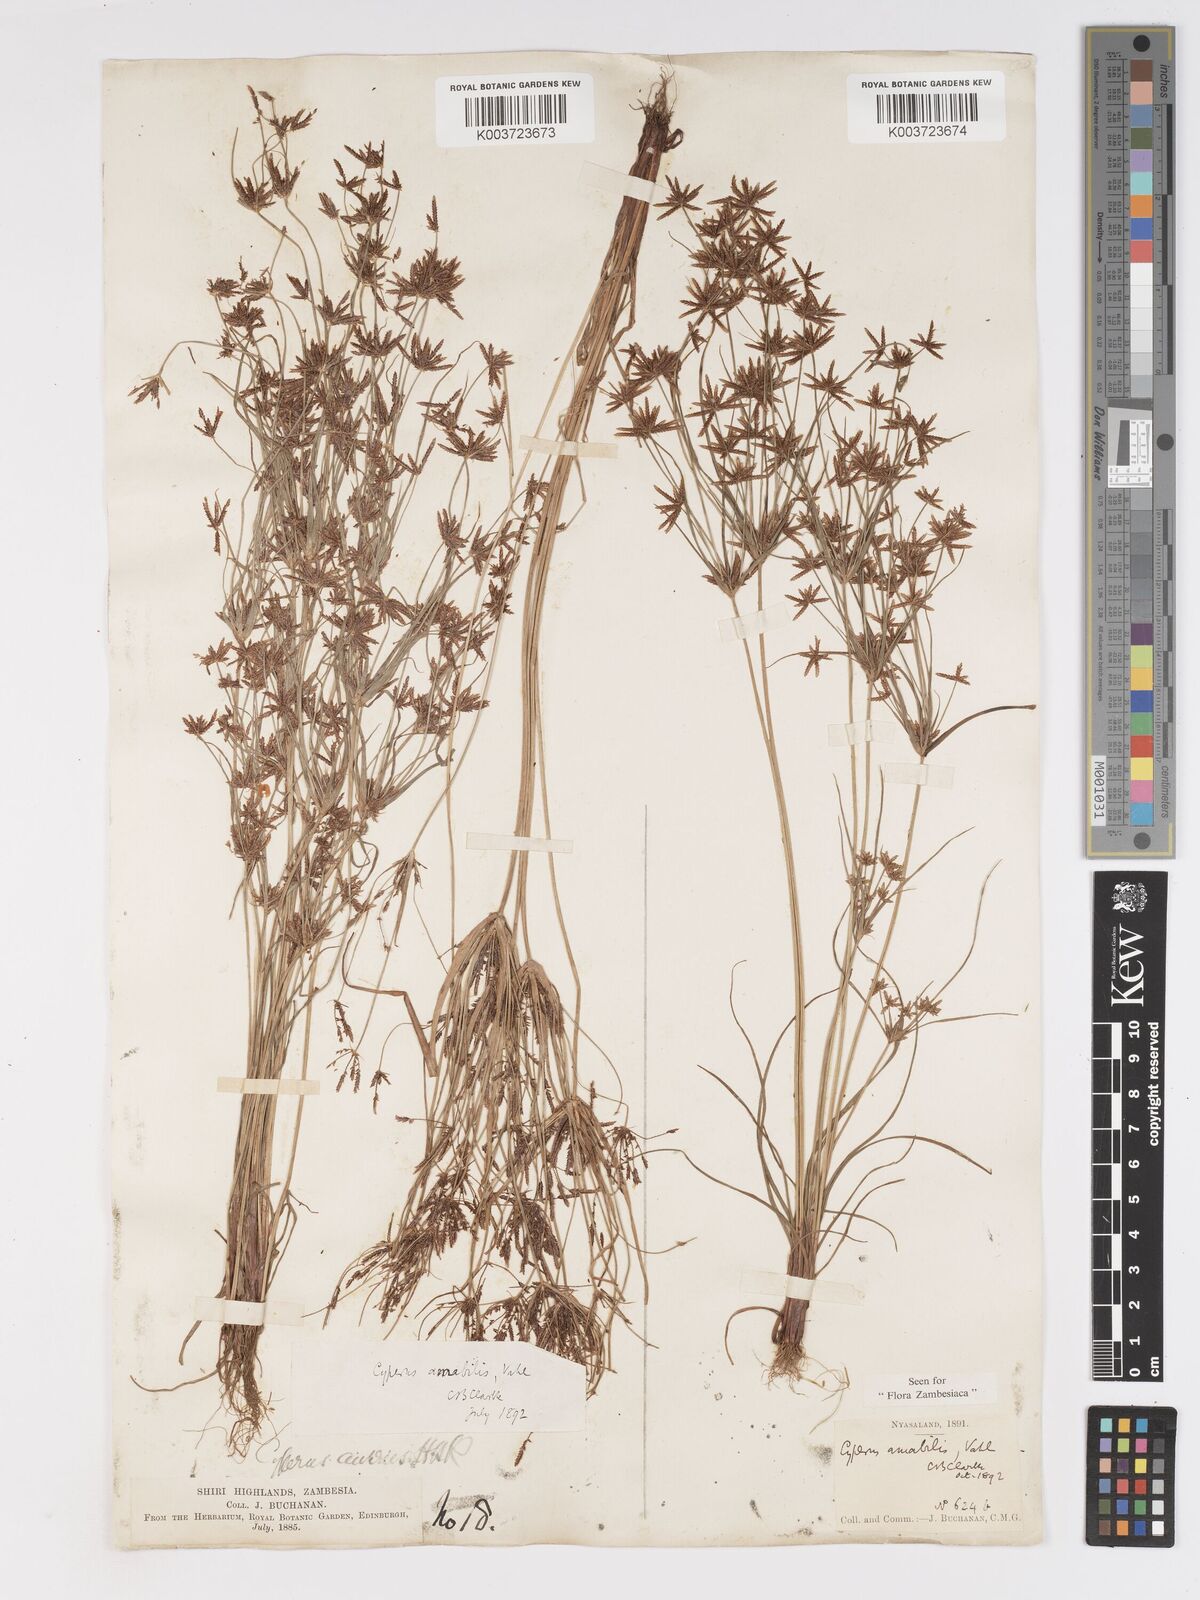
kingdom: Plantae
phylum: Tracheophyta
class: Liliopsida
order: Poales
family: Cyperaceae
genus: Cyperus
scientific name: Cyperus amabilis
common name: Foothill flat sedge
